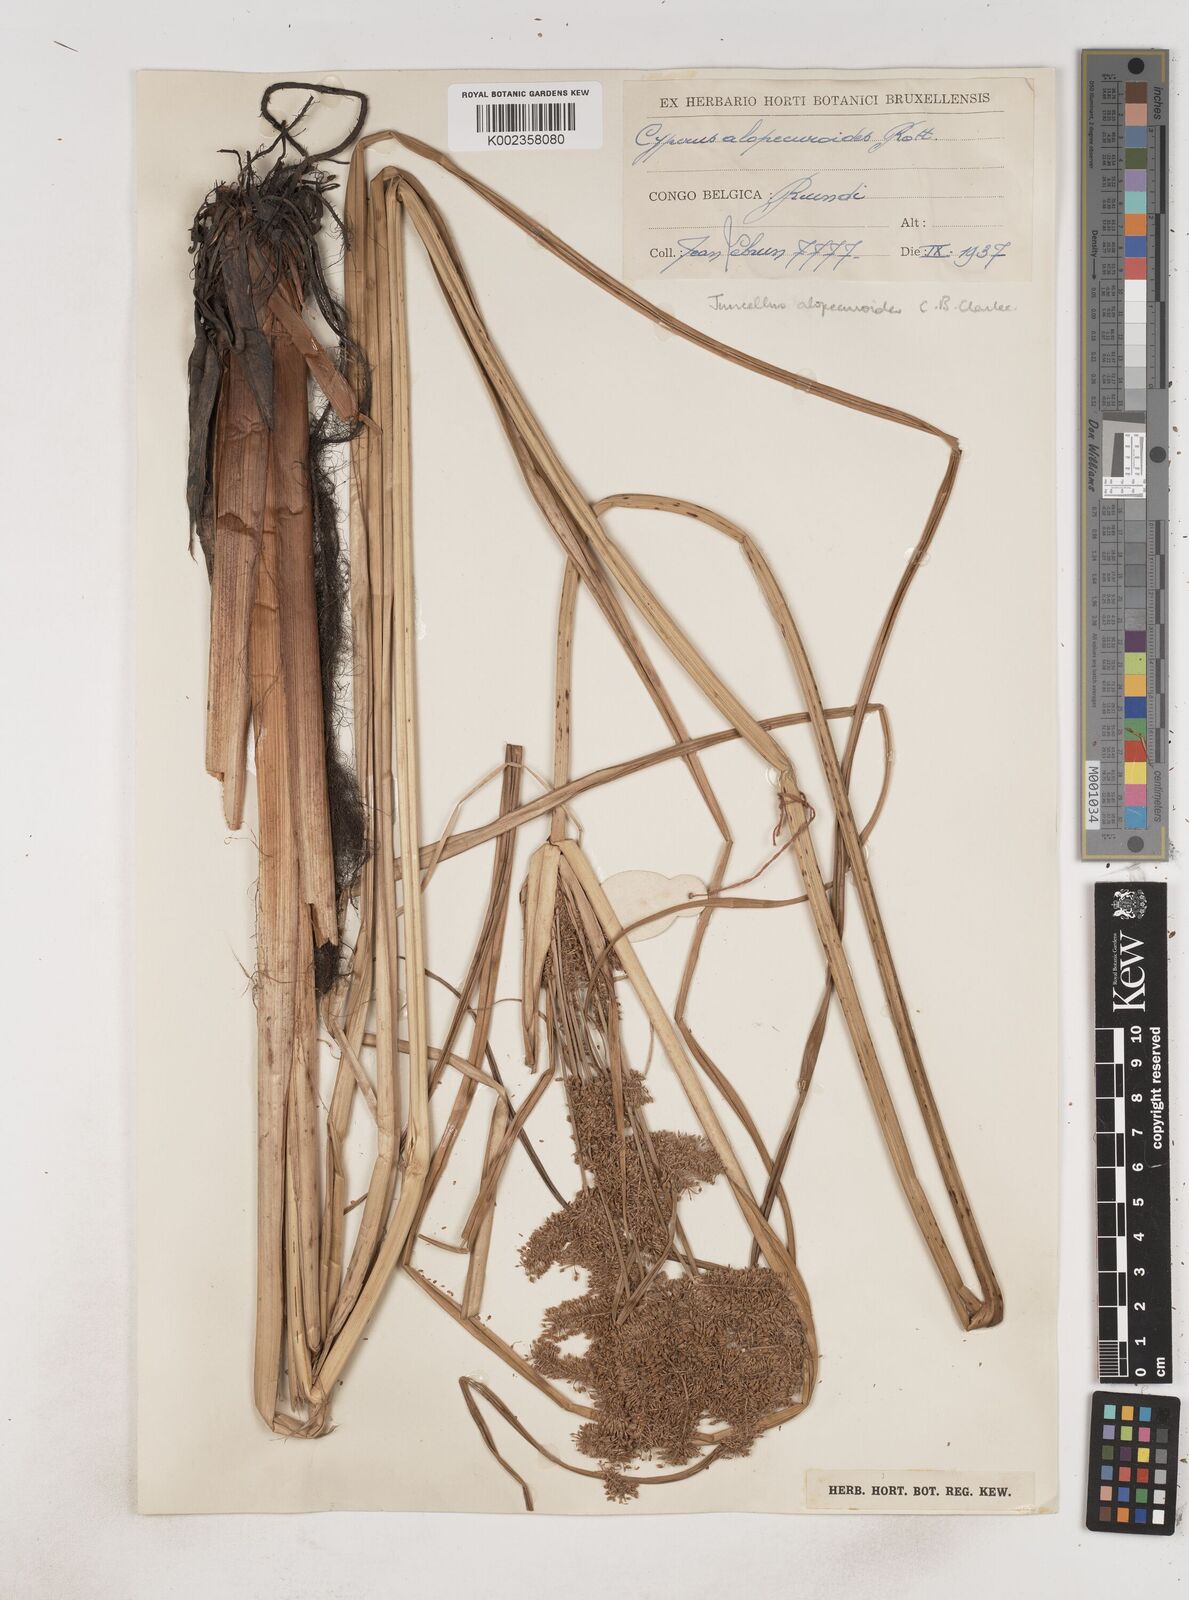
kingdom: Plantae
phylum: Tracheophyta
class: Liliopsida
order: Poales
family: Cyperaceae
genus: Cyperus
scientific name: Cyperus alopecuroides
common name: Foxtail flatsedge
